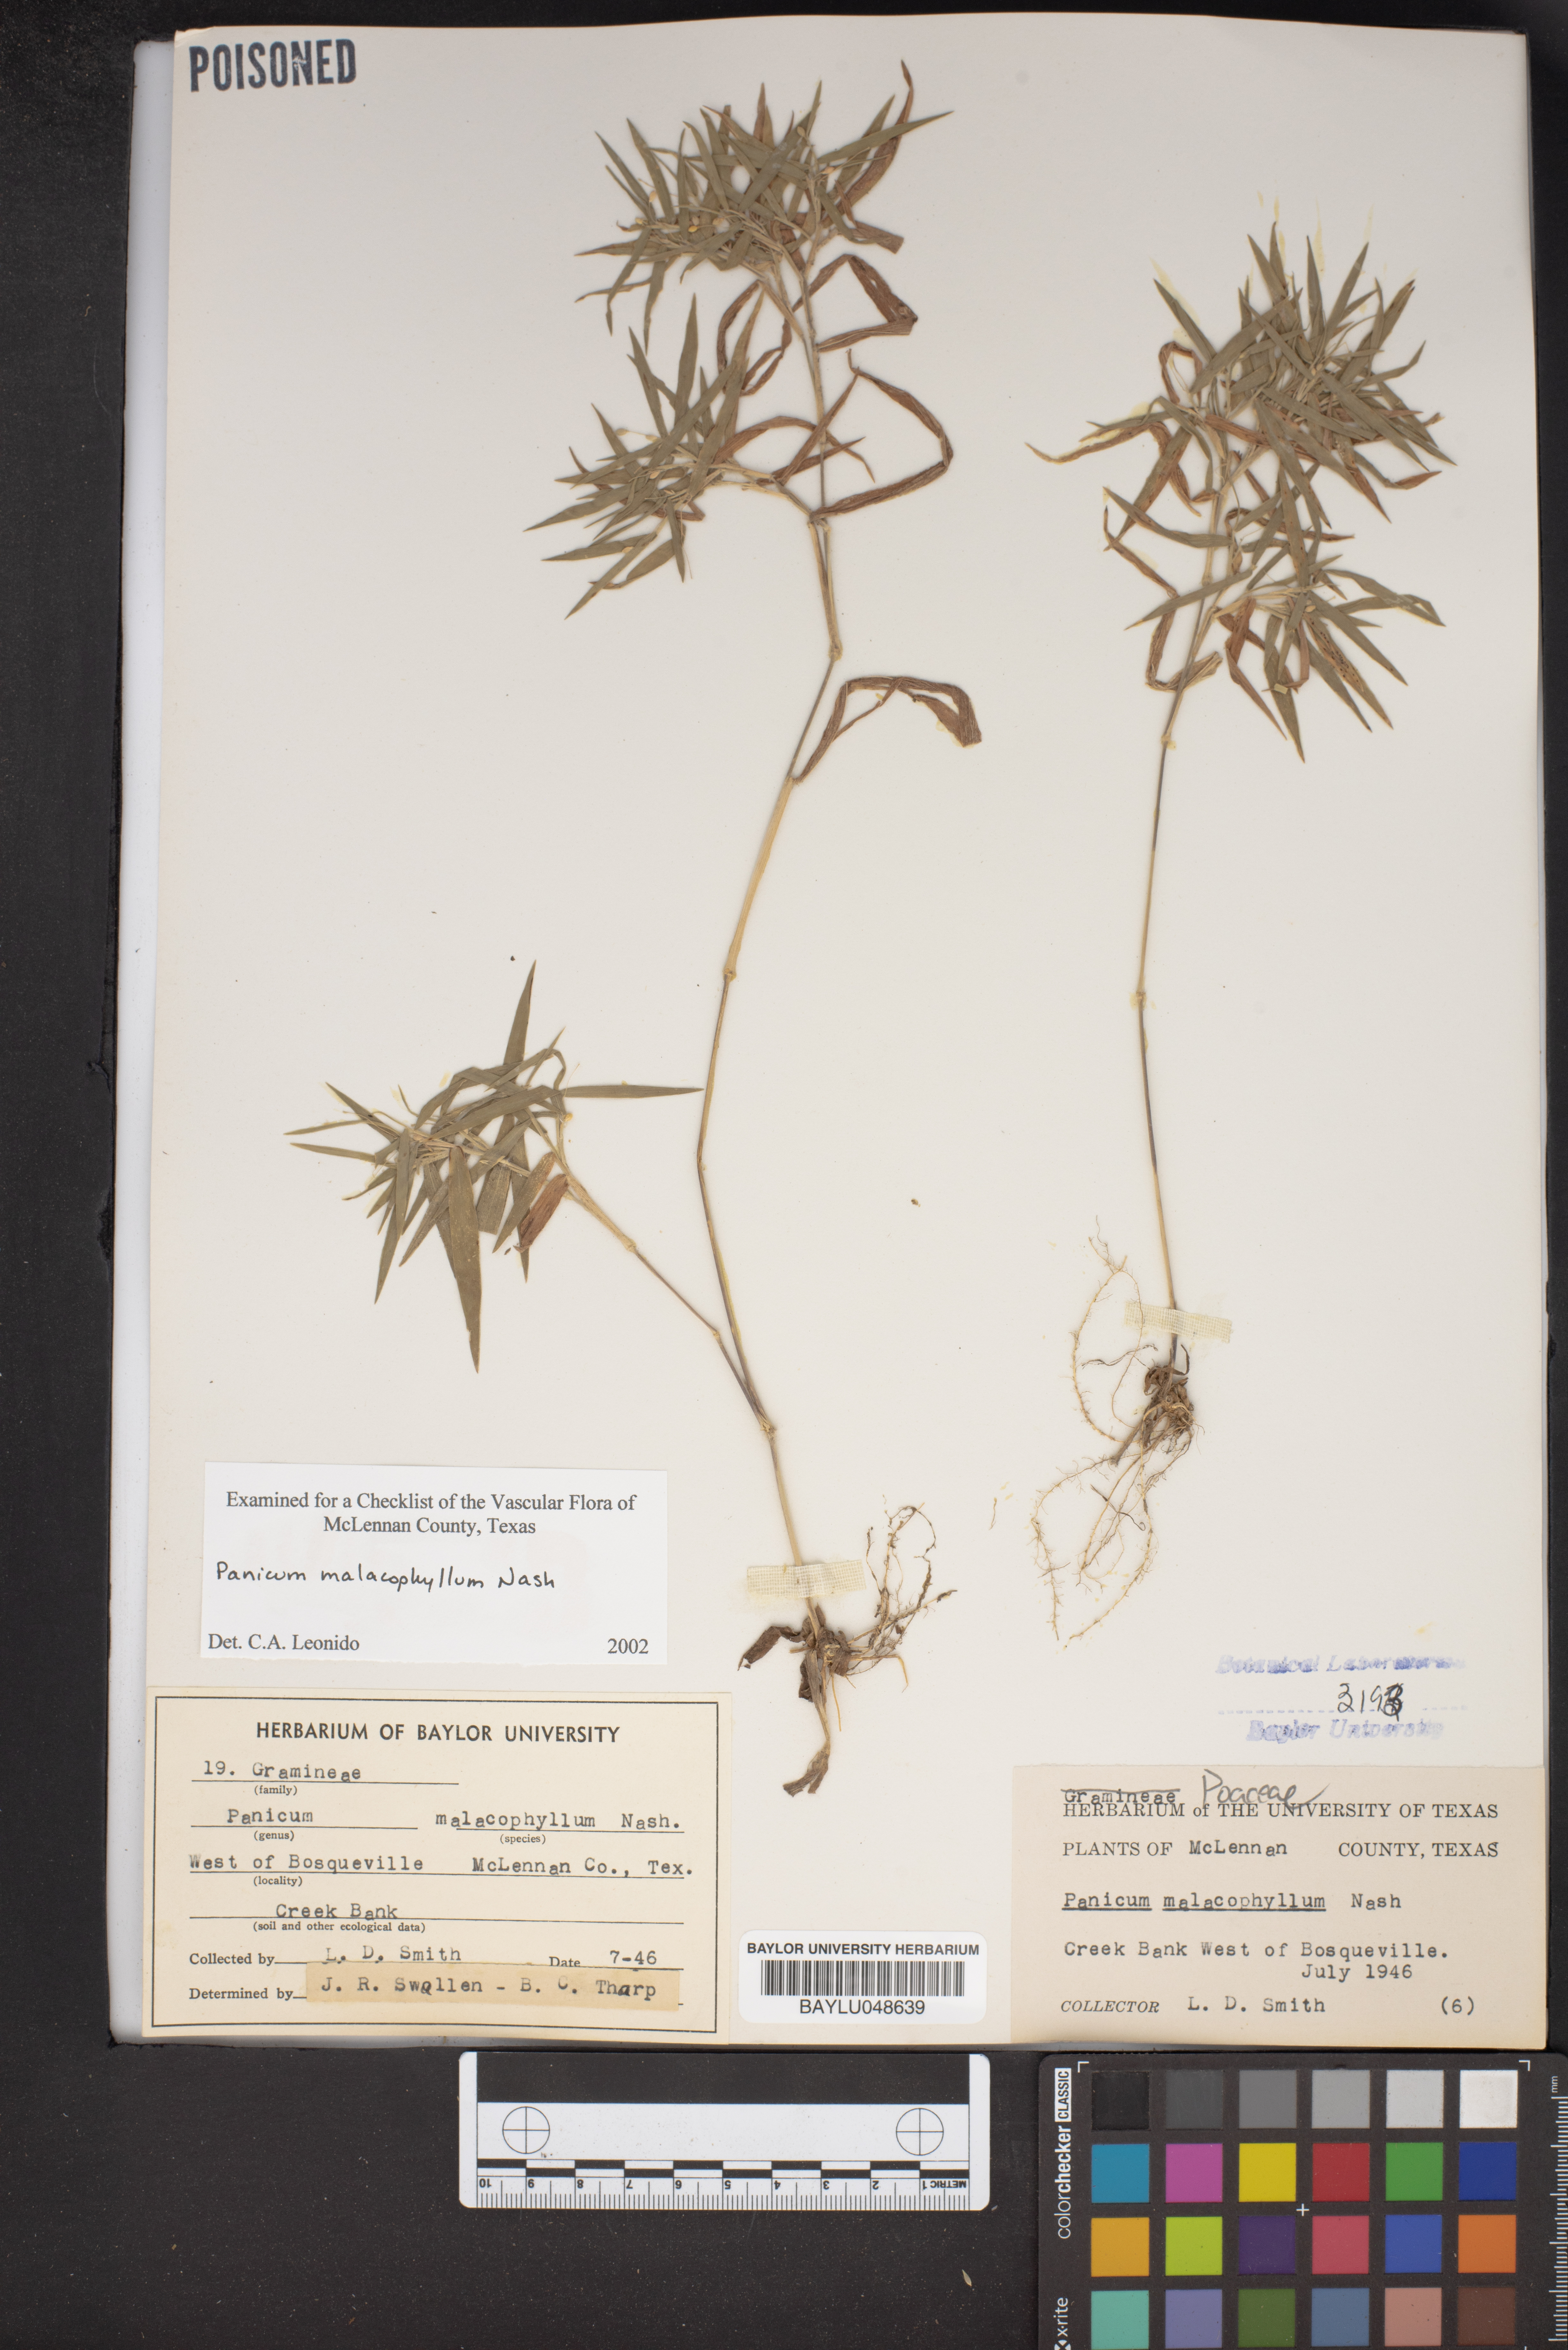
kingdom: Plantae
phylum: Tracheophyta
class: Liliopsida
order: Poales
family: Poaceae
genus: Dichanthelium
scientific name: Dichanthelium malacophyllum
